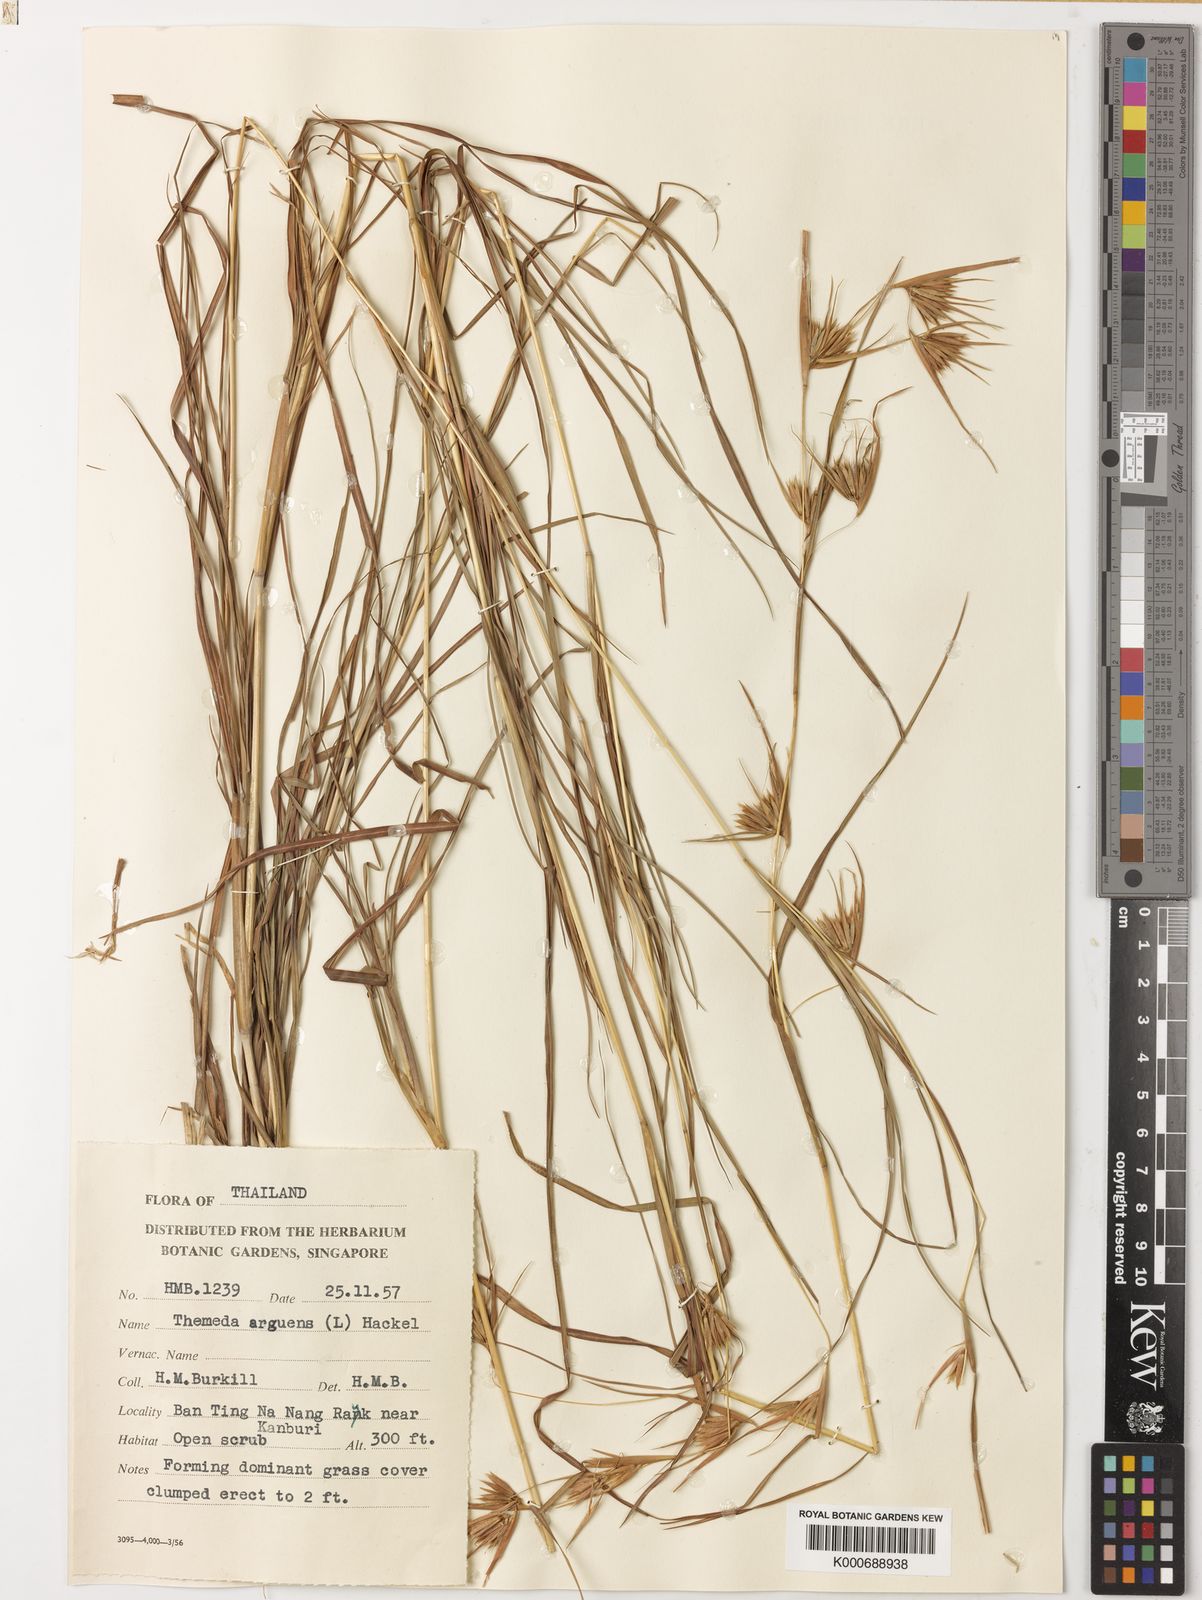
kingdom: Plantae
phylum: Tracheophyta
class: Liliopsida
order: Poales
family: Poaceae
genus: Themeda
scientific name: Themeda triandra
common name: Kangaroo grass
